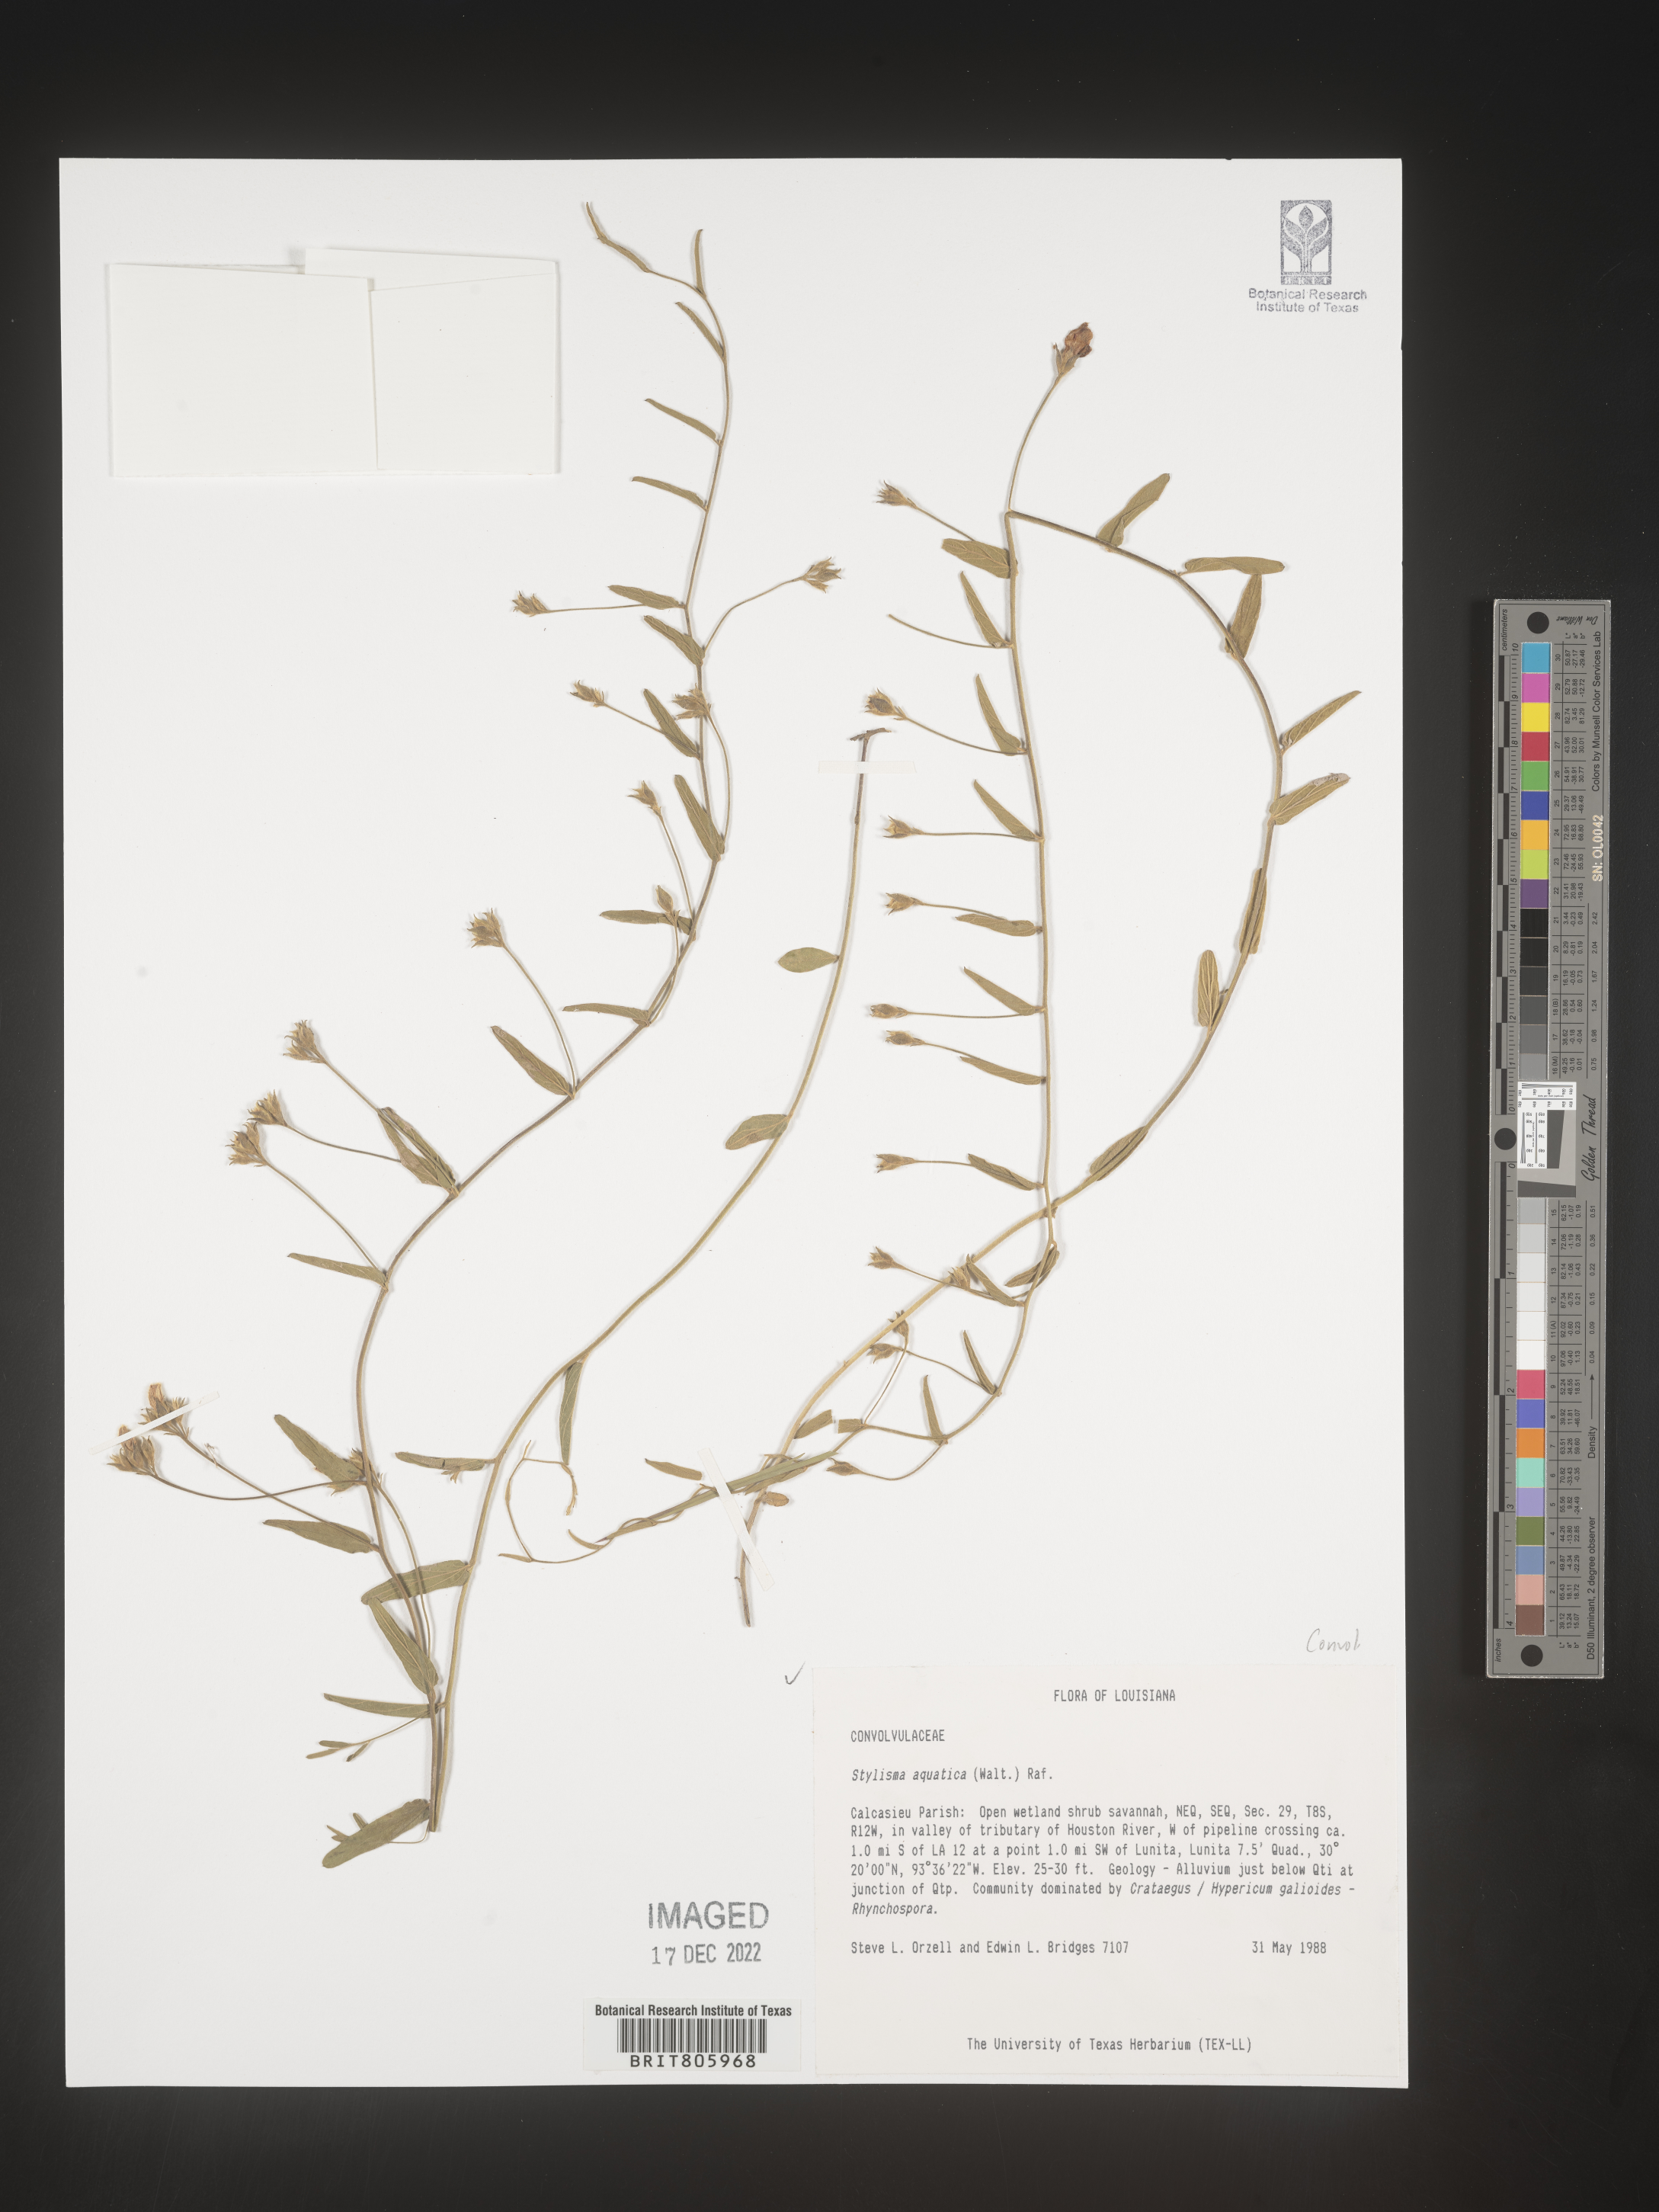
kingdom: Plantae
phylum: Tracheophyta
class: Magnoliopsida
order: Solanales
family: Convolvulaceae
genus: Stylisma
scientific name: Stylisma
